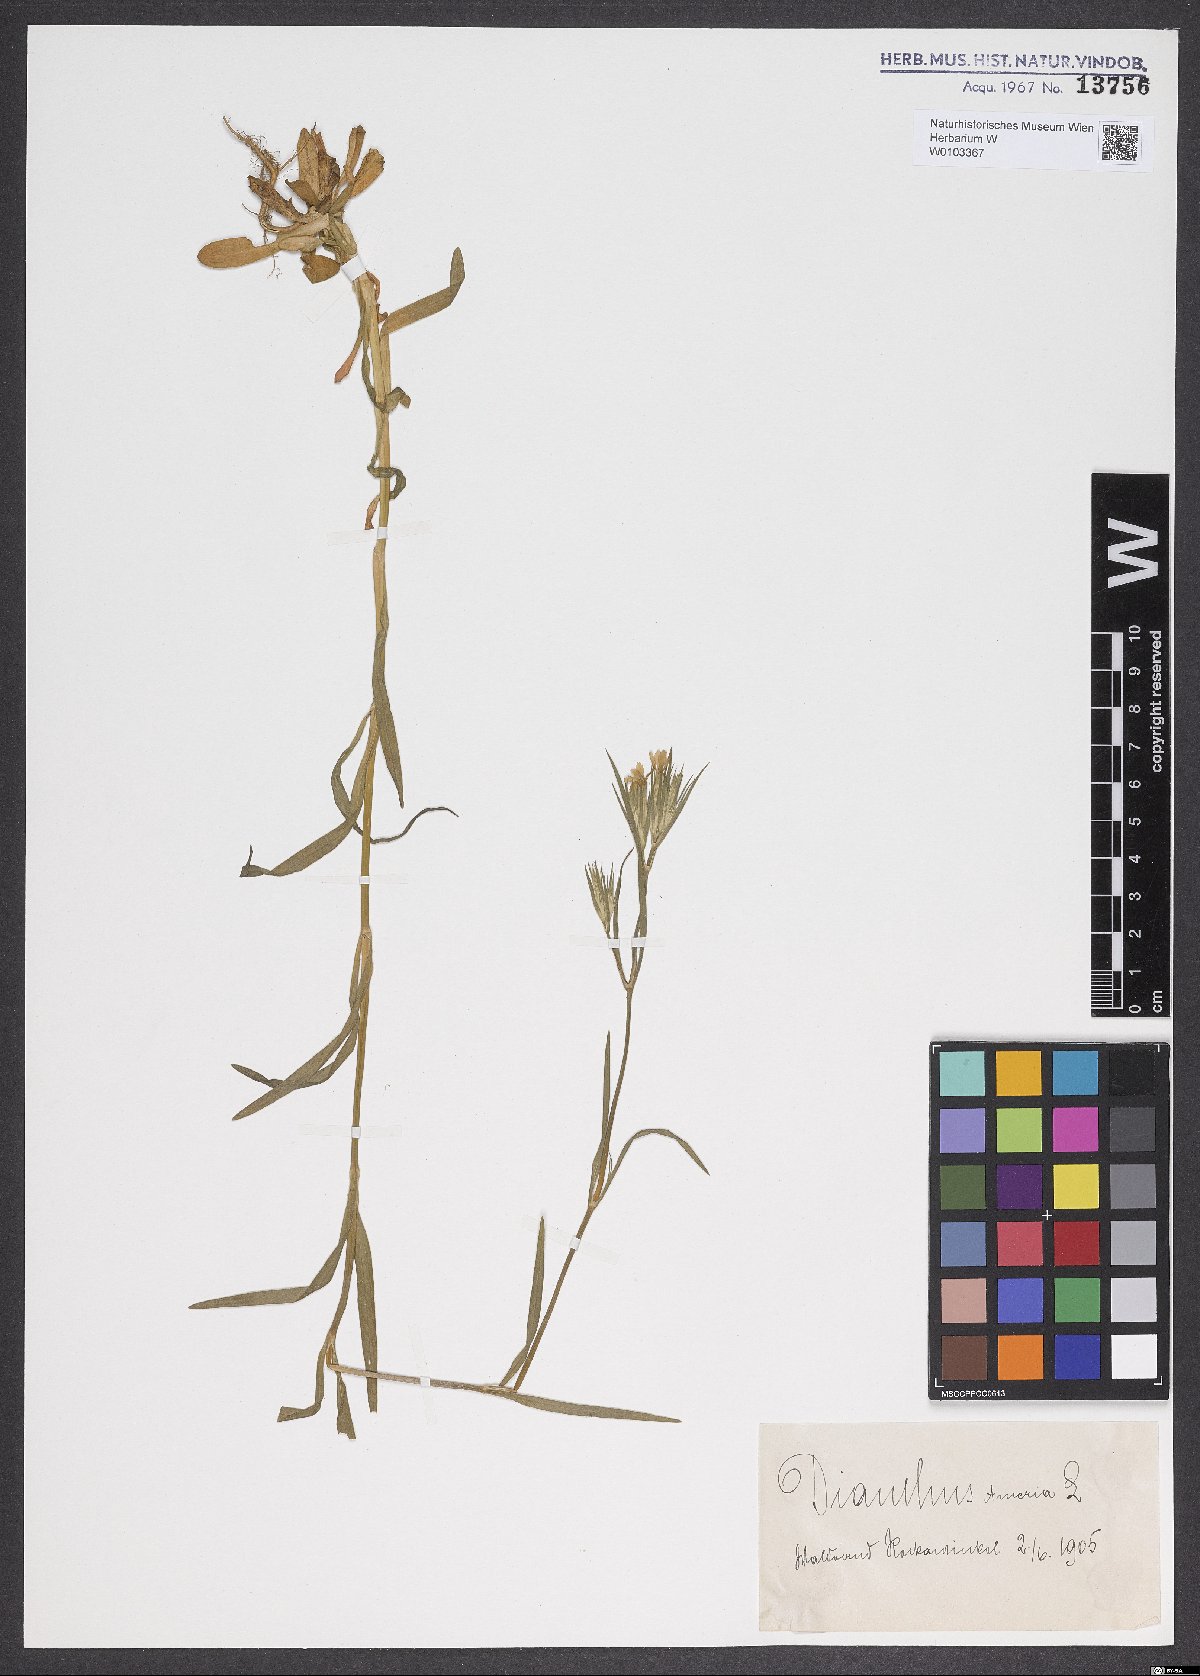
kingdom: Plantae
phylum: Tracheophyta
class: Magnoliopsida
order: Caryophyllales
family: Caryophyllaceae
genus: Dianthus
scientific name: Dianthus armeria
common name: Deptford pink
